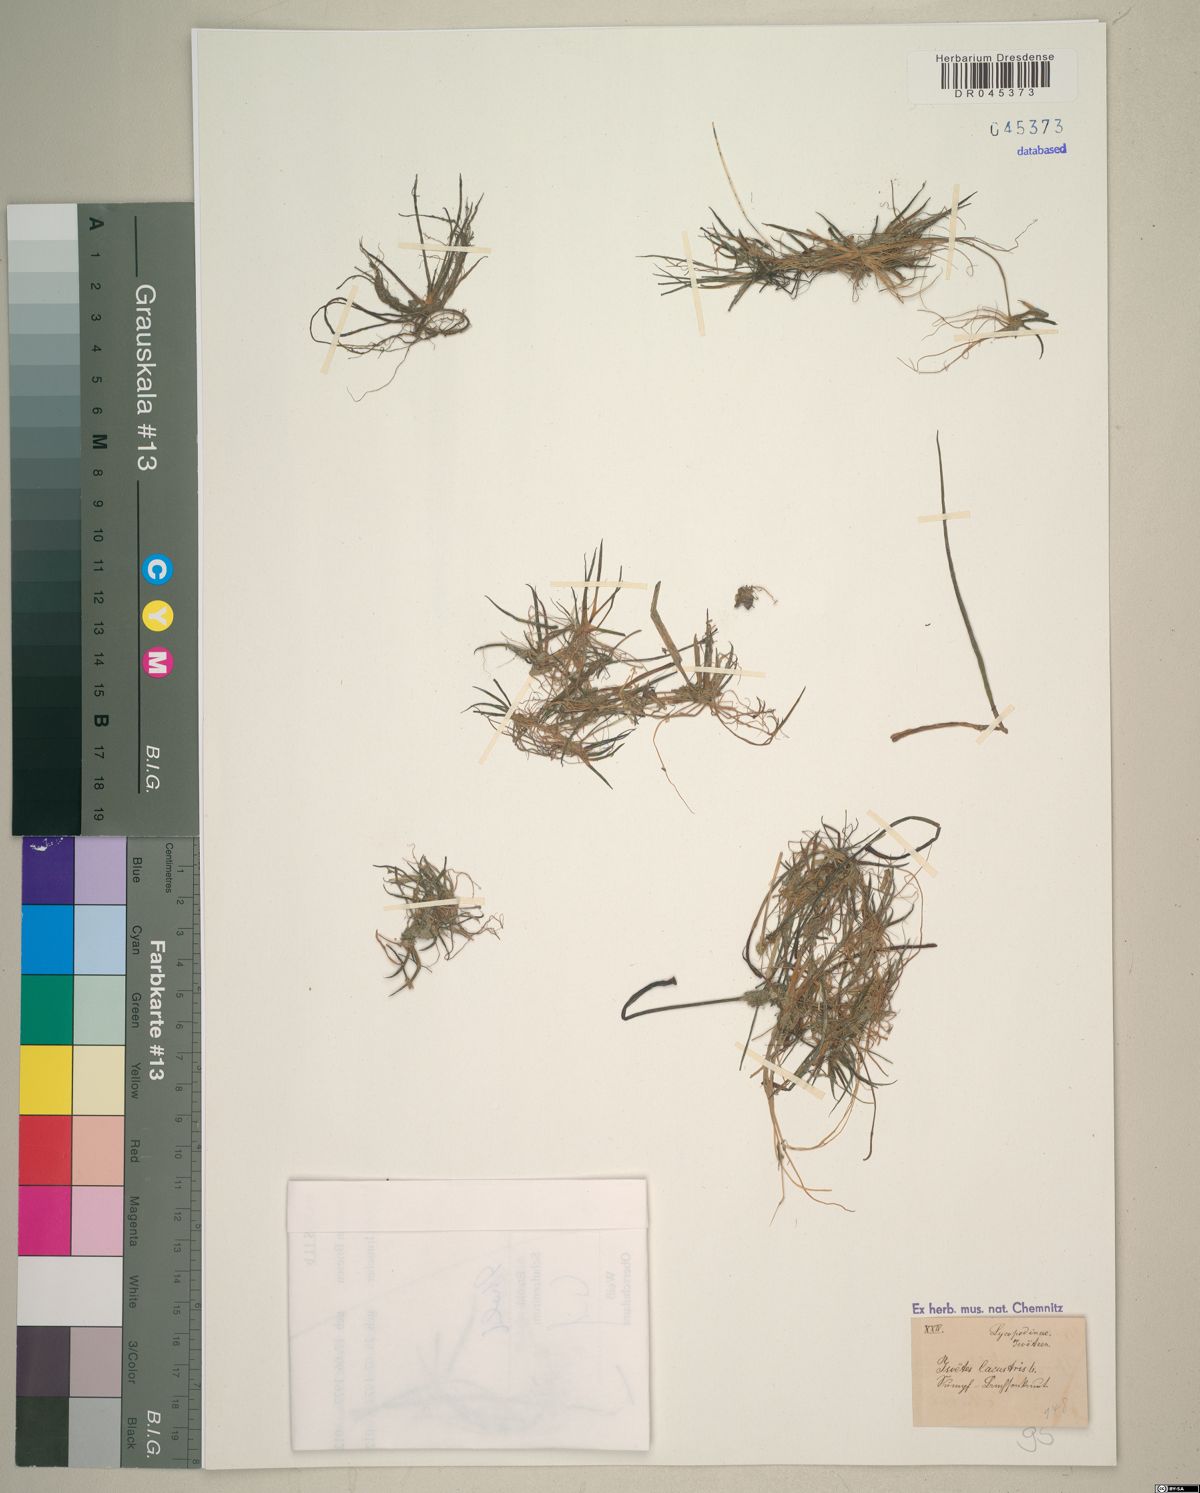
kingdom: Plantae
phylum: Tracheophyta
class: Lycopodiopsida
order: Isoetales
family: Isoetaceae
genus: Isoetes
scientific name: Isoetes lacustris
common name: Common quillwort
